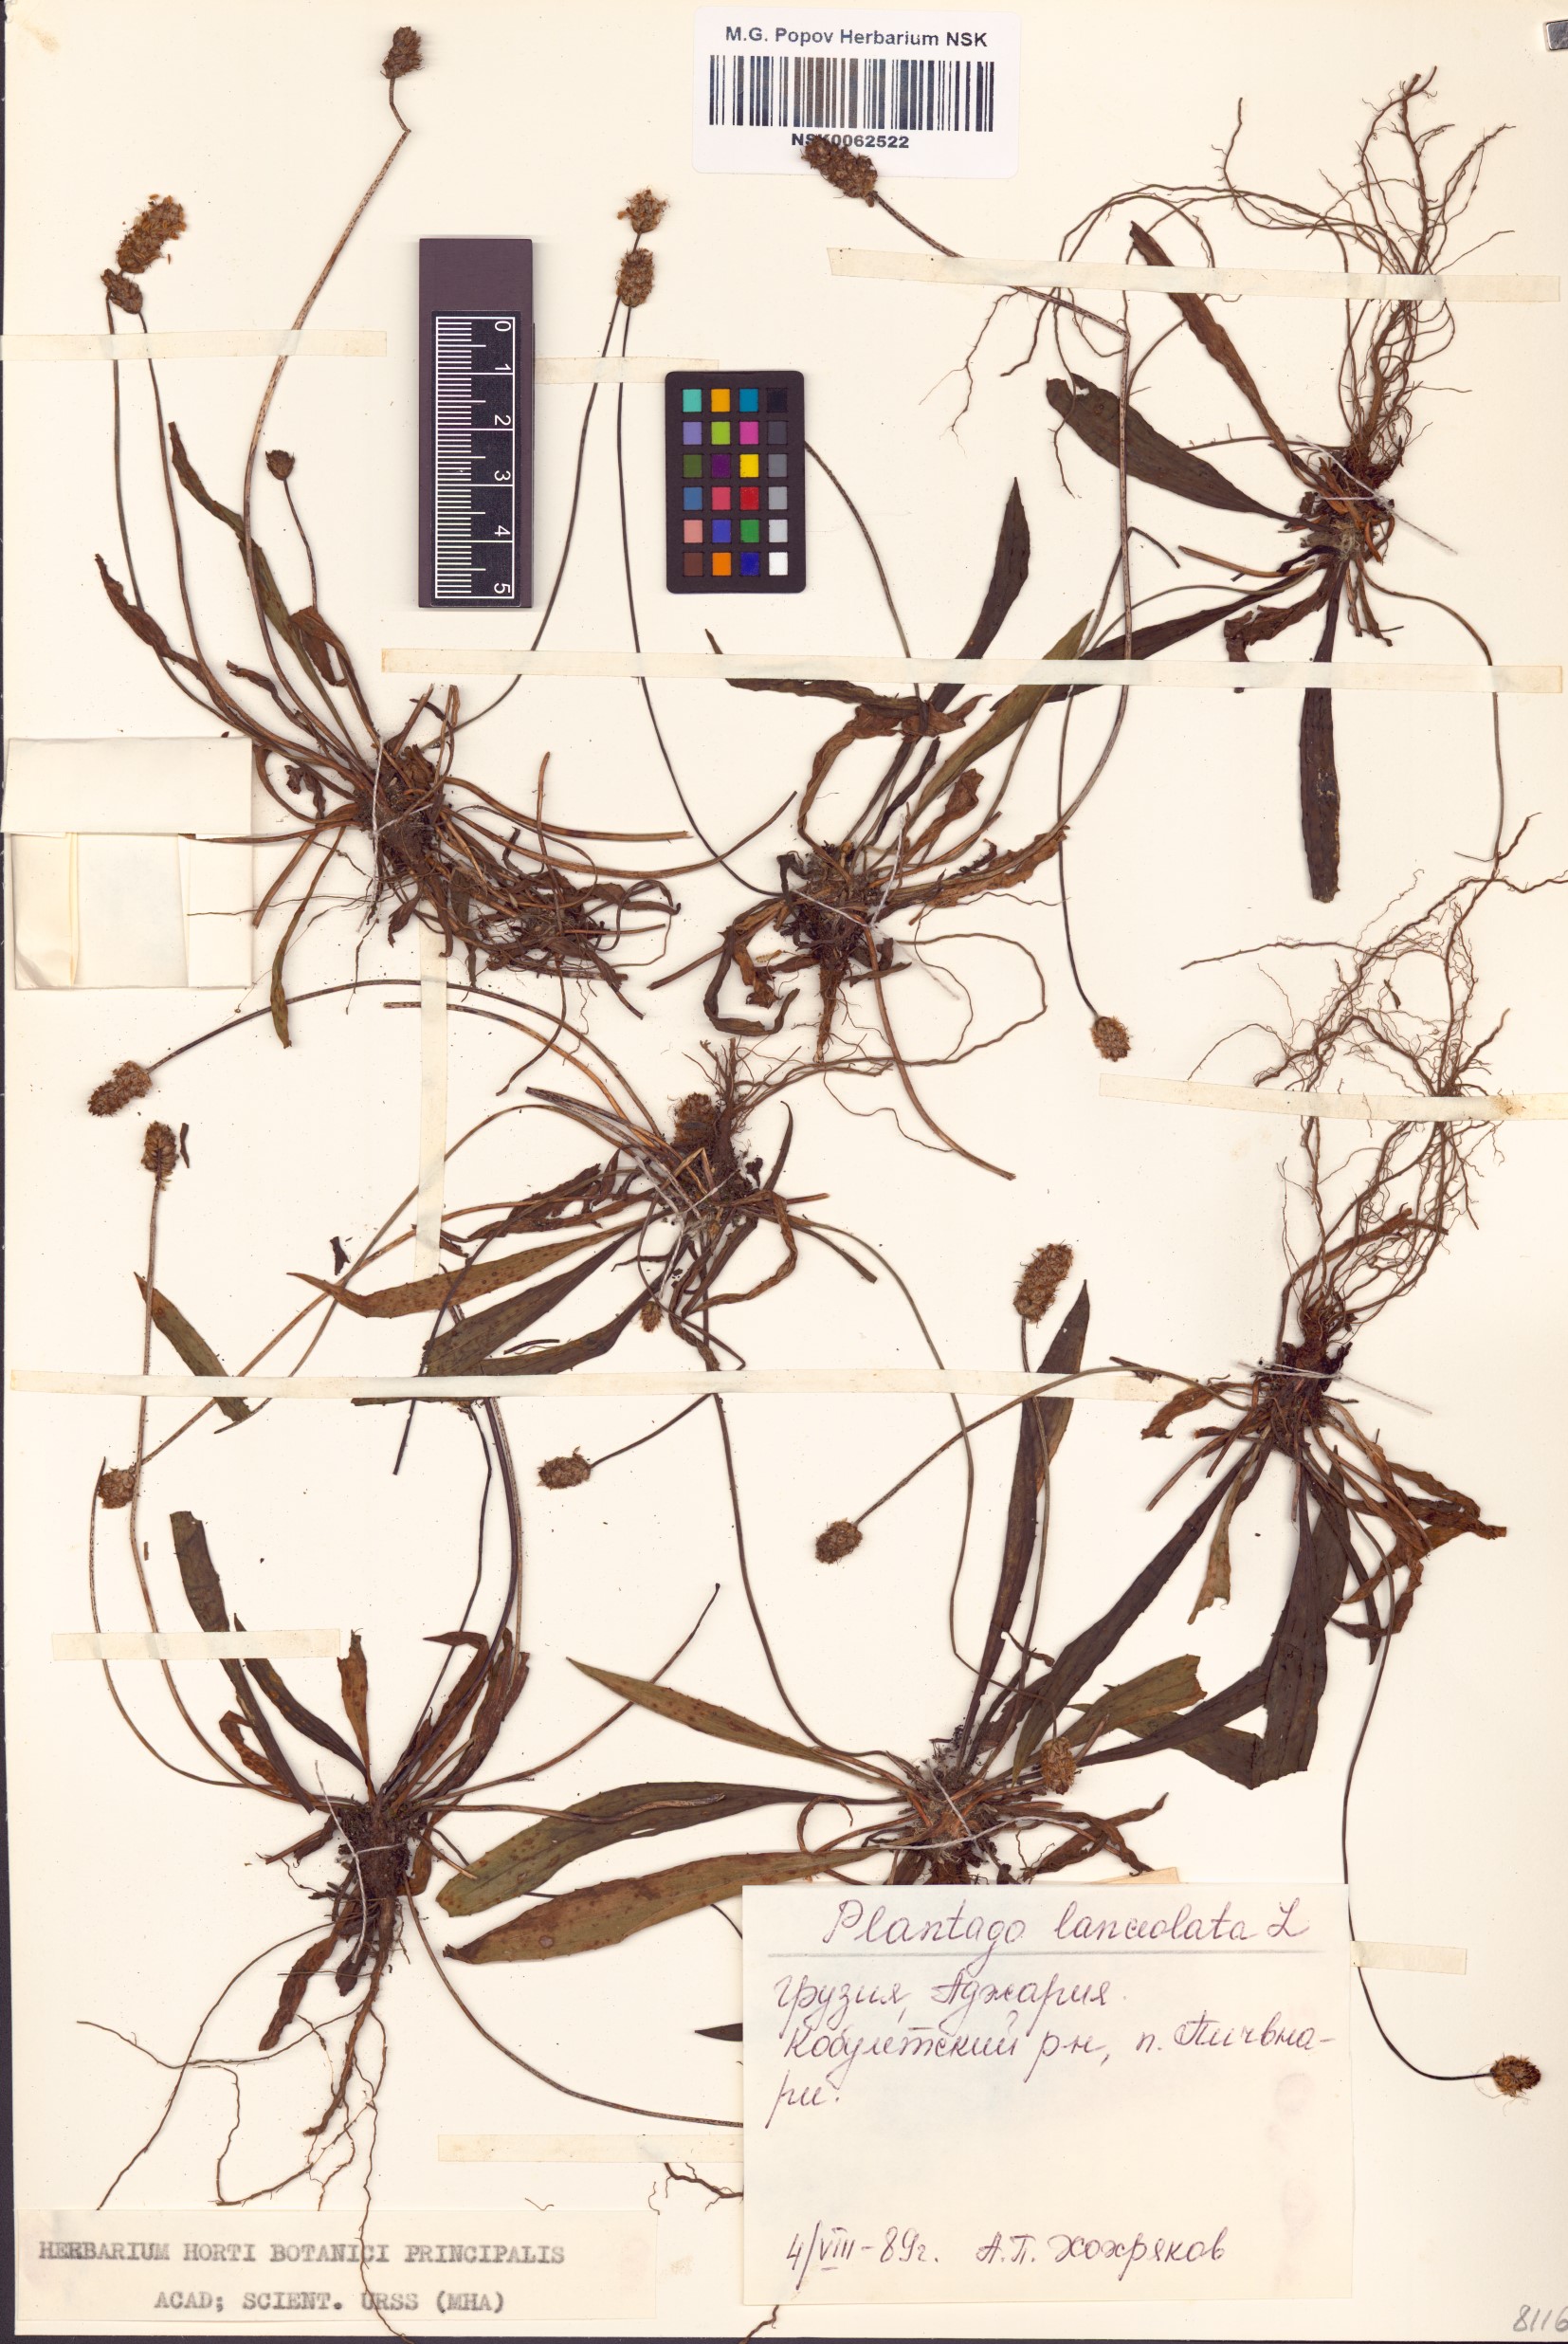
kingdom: Plantae
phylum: Tracheophyta
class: Magnoliopsida
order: Lamiales
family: Plantaginaceae
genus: Plantago
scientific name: Plantago lanceolata
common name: Ribwort plantain
